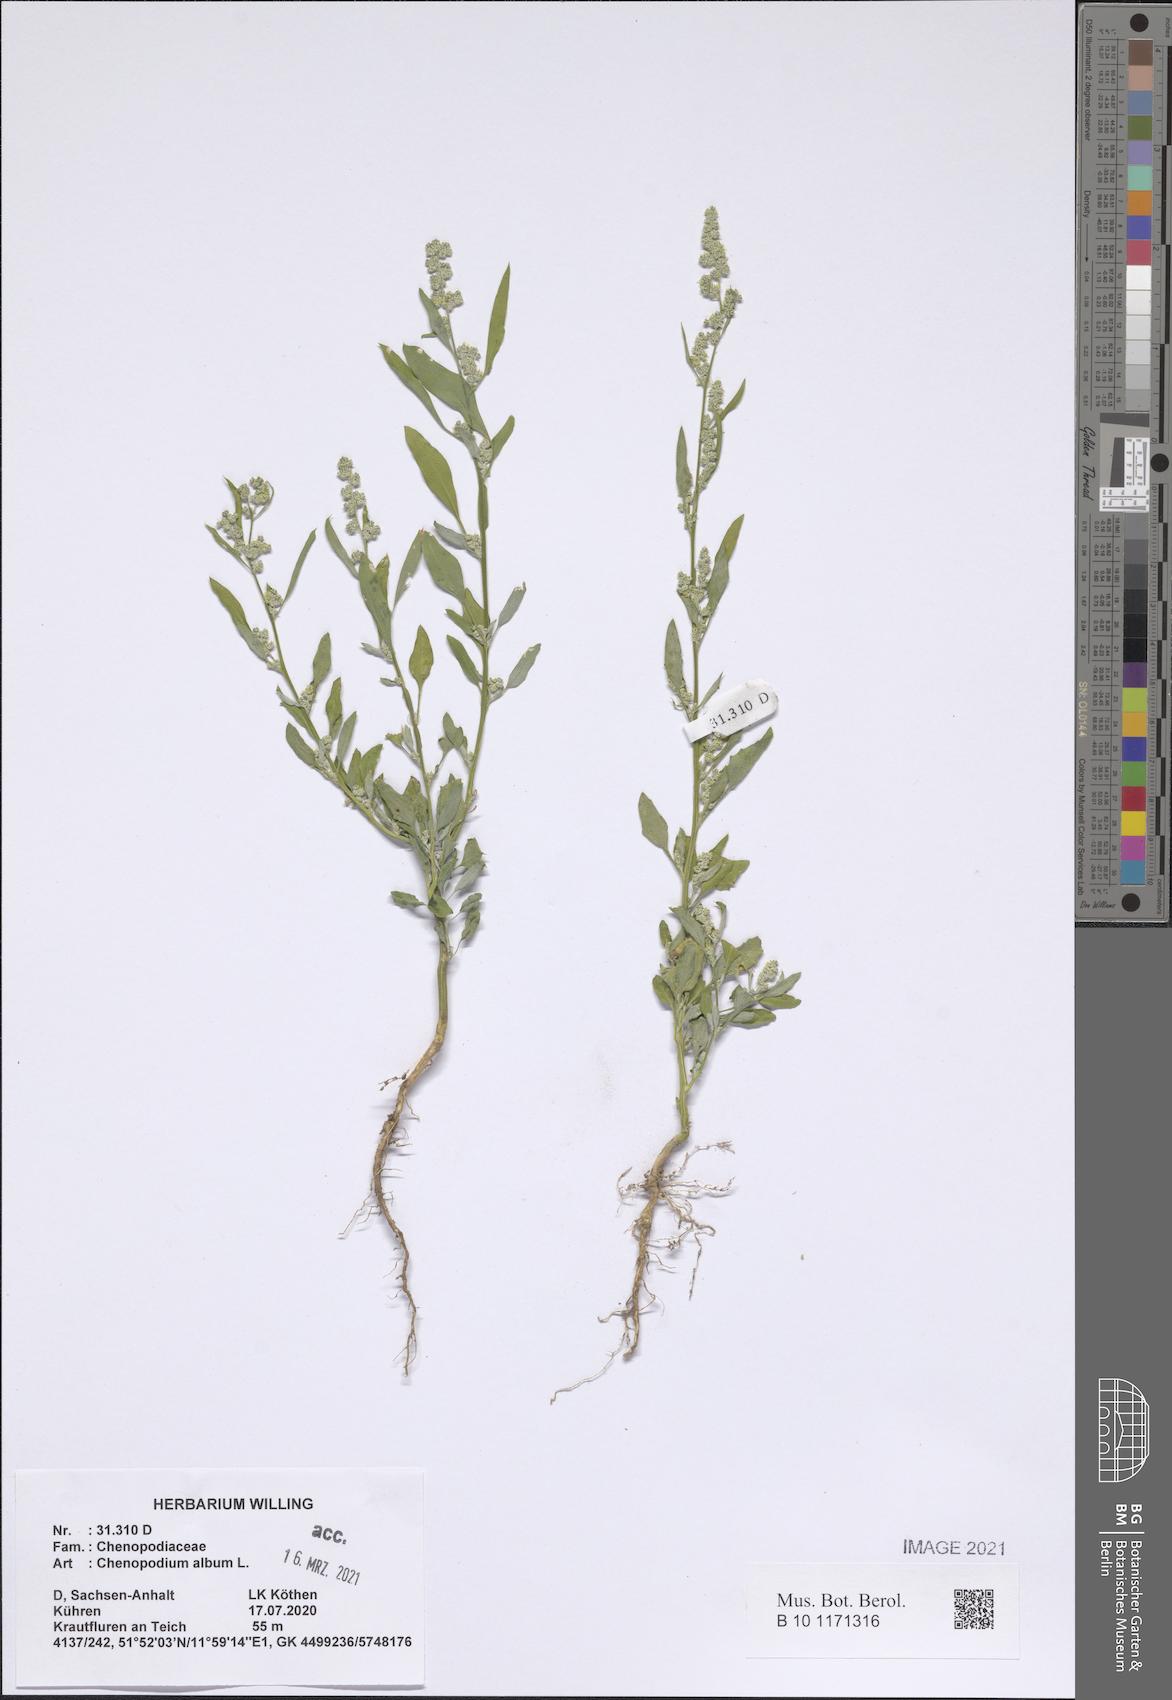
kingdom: Plantae
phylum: Tracheophyta
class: Magnoliopsida
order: Caryophyllales
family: Amaranthaceae
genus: Chenopodium
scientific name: Chenopodium album
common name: Fat-hen
